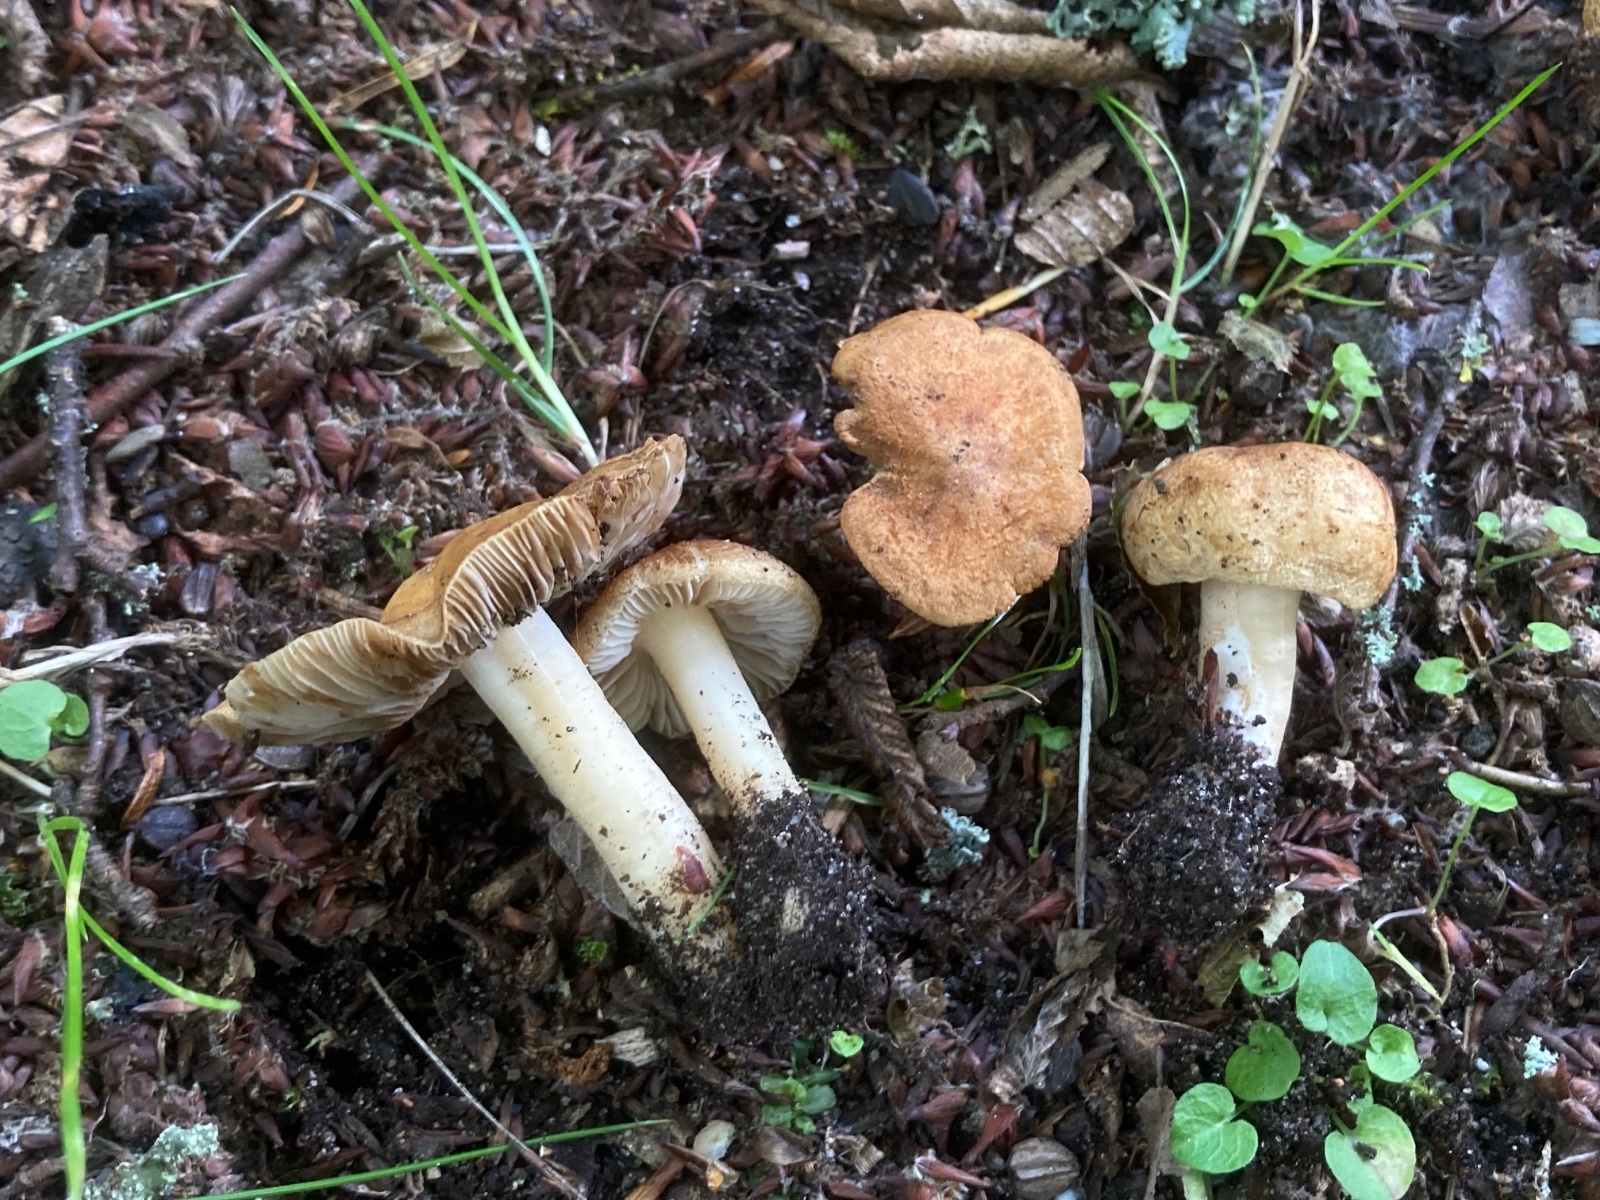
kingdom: Fungi
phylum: Basidiomycota
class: Agaricomycetes
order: Agaricales
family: Inocybaceae
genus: Inocybe
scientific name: Inocybe langei
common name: Langes trævlhat
